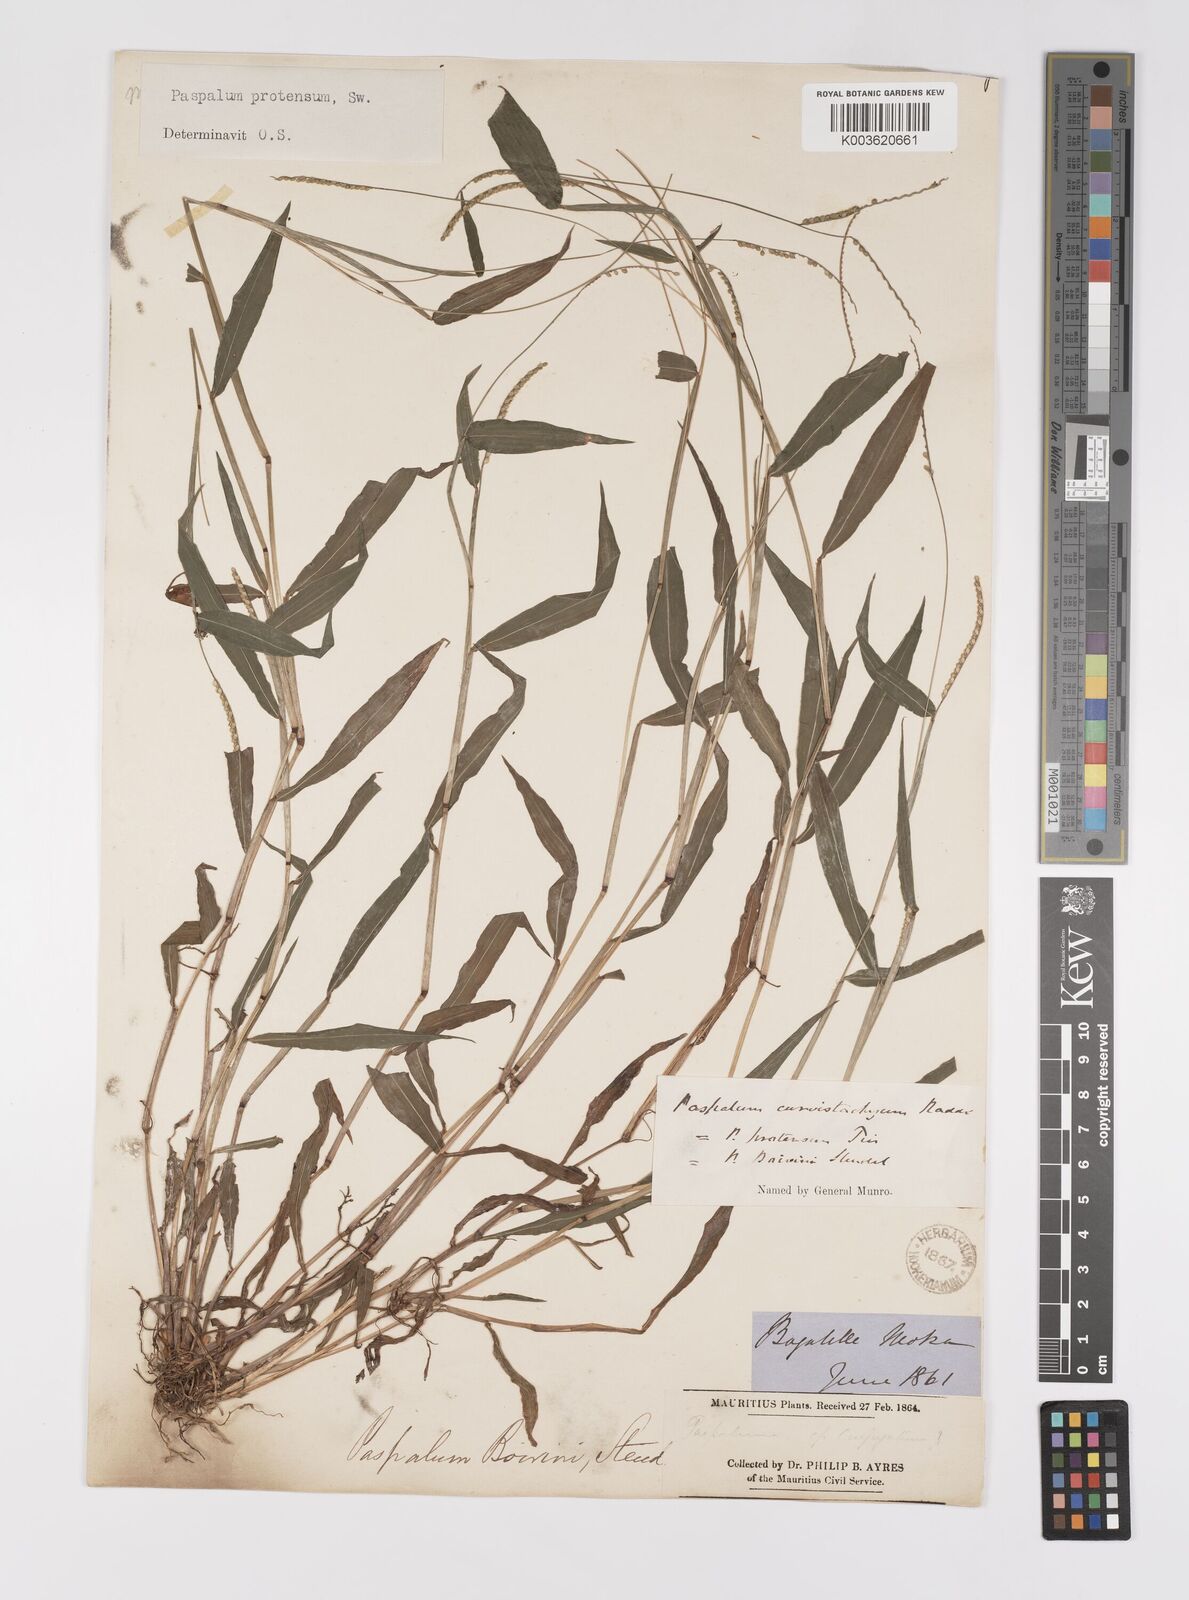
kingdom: Plantae
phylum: Tracheophyta
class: Liliopsida
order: Poales
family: Poaceae
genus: Paspalum
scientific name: Paspalum nutans
